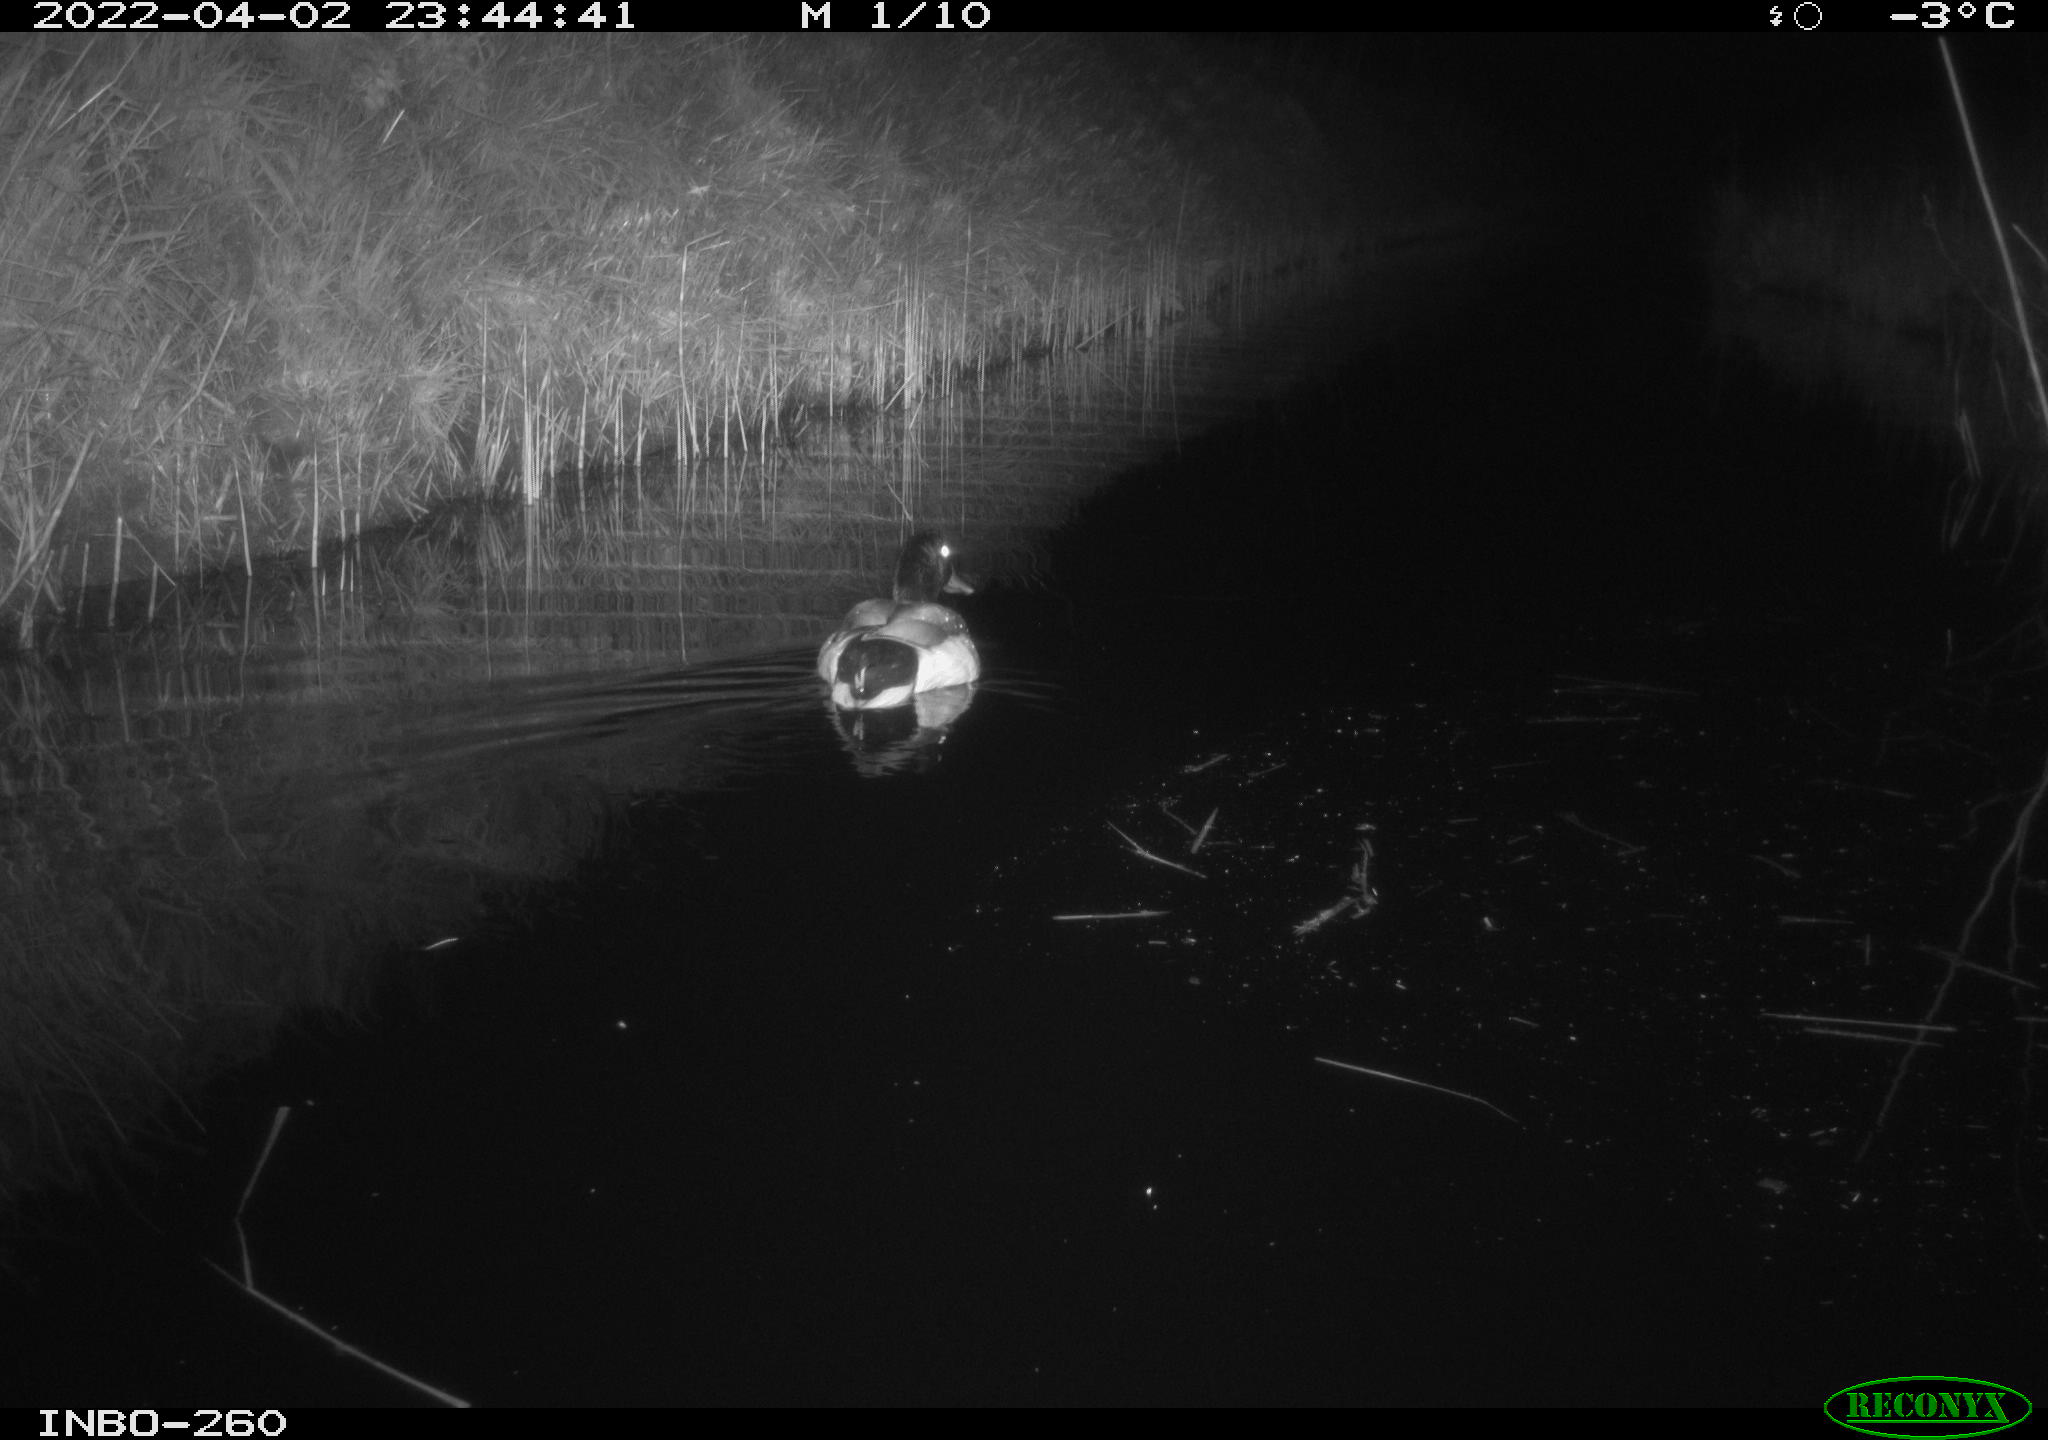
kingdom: Animalia
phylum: Chordata
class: Aves
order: Anseriformes
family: Anatidae
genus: Anas
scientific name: Anas platyrhynchos
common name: Mallard
